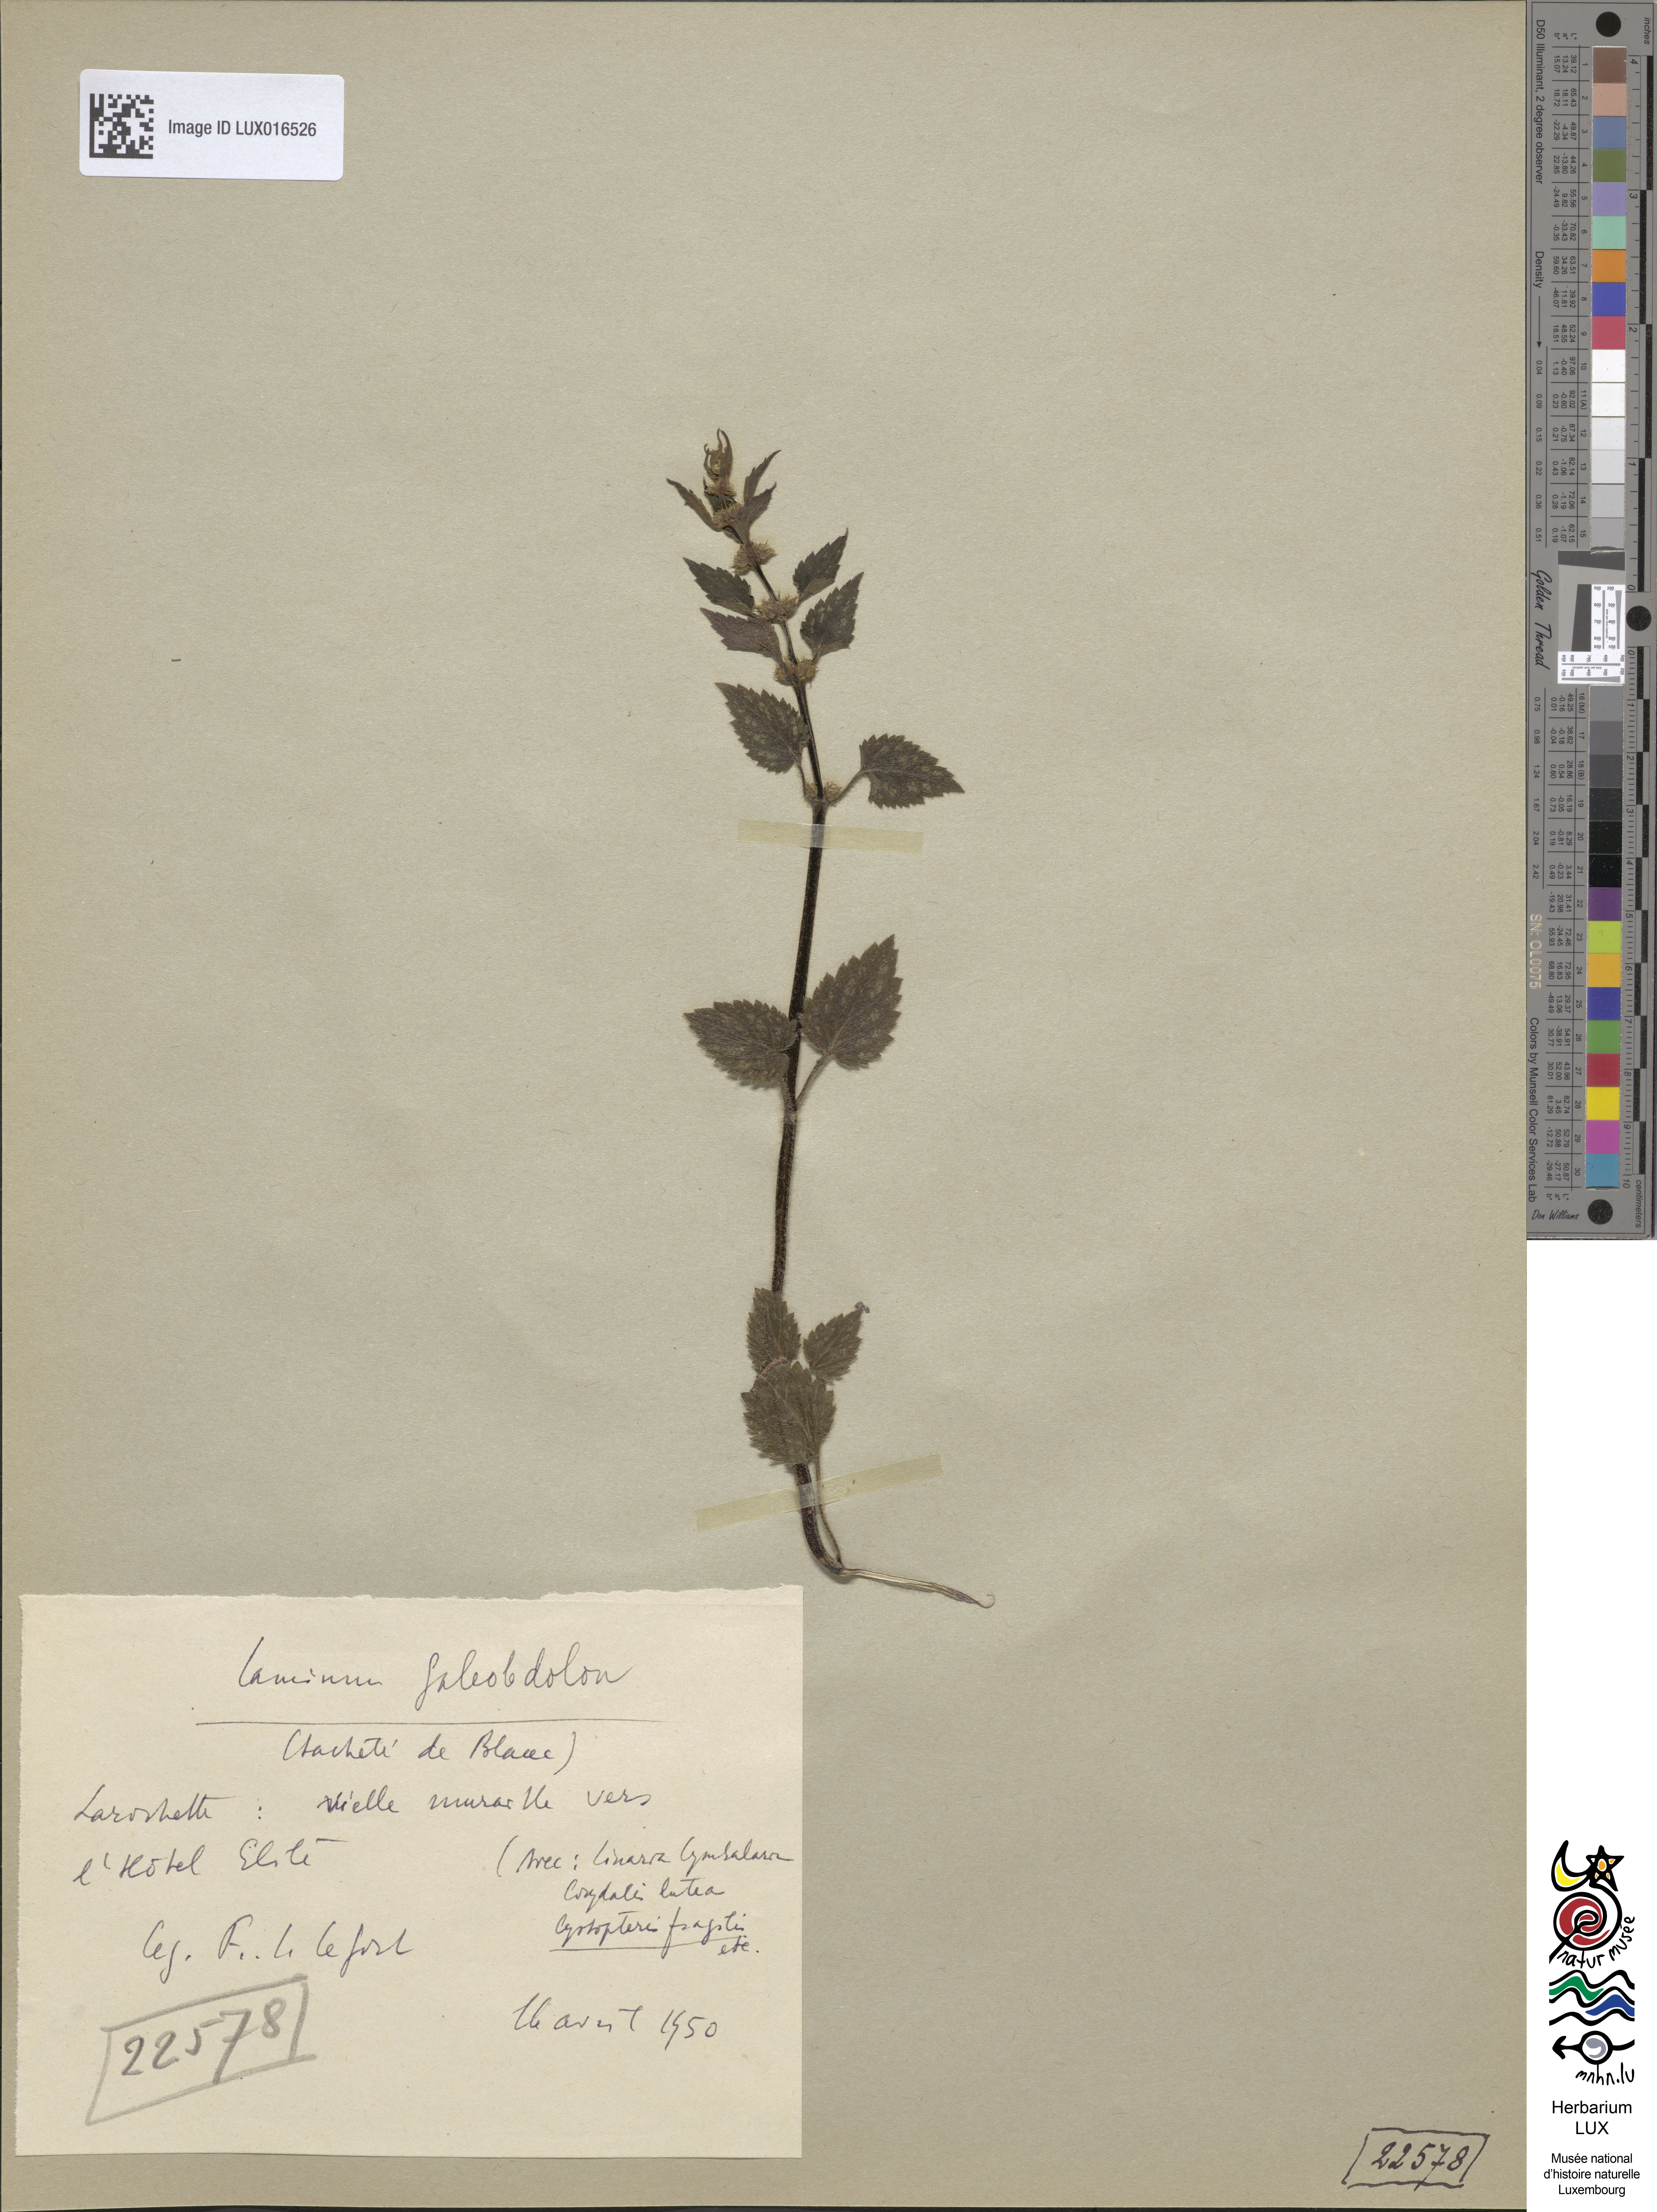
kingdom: Plantae
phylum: Tracheophyta
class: Magnoliopsida
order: Lamiales
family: Lamiaceae
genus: Lamium
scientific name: Lamium galeobdolon
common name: Yellow archangel
